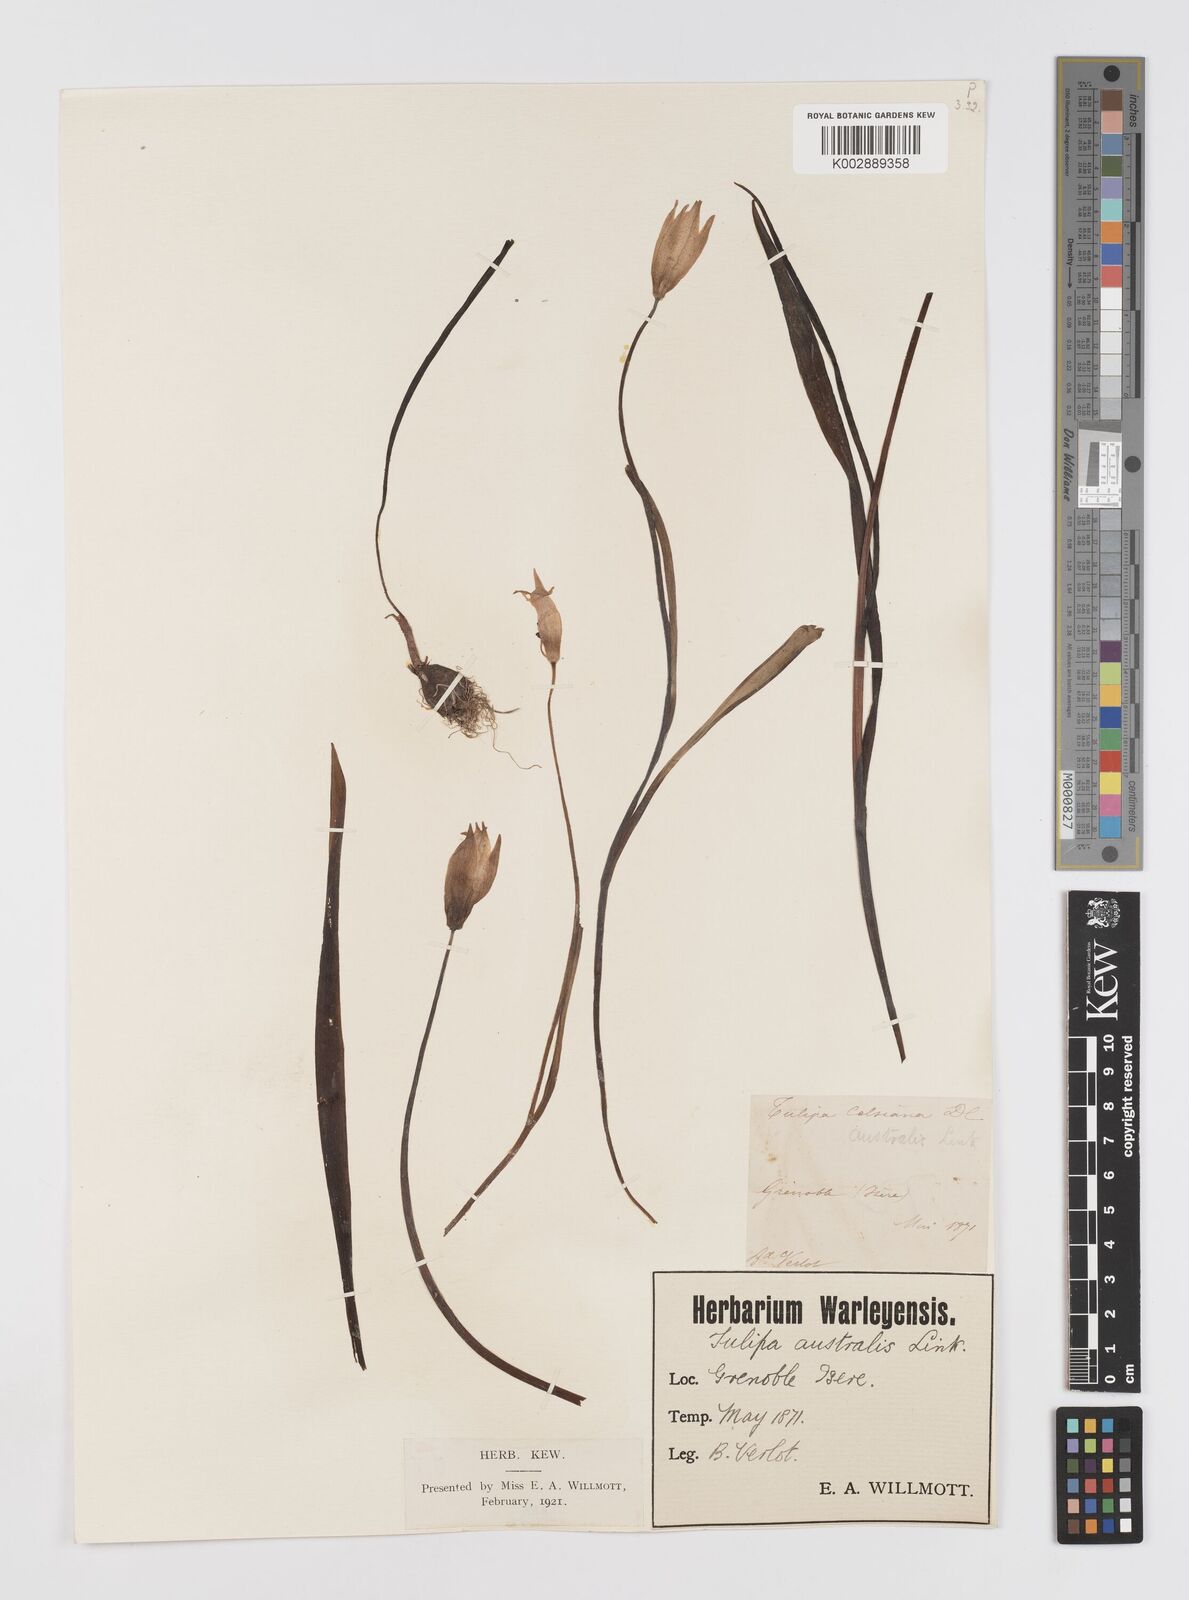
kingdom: Plantae
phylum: Tracheophyta
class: Liliopsida
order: Liliales
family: Liliaceae
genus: Tulipa
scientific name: Tulipa sylvestris
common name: Wild tulip
